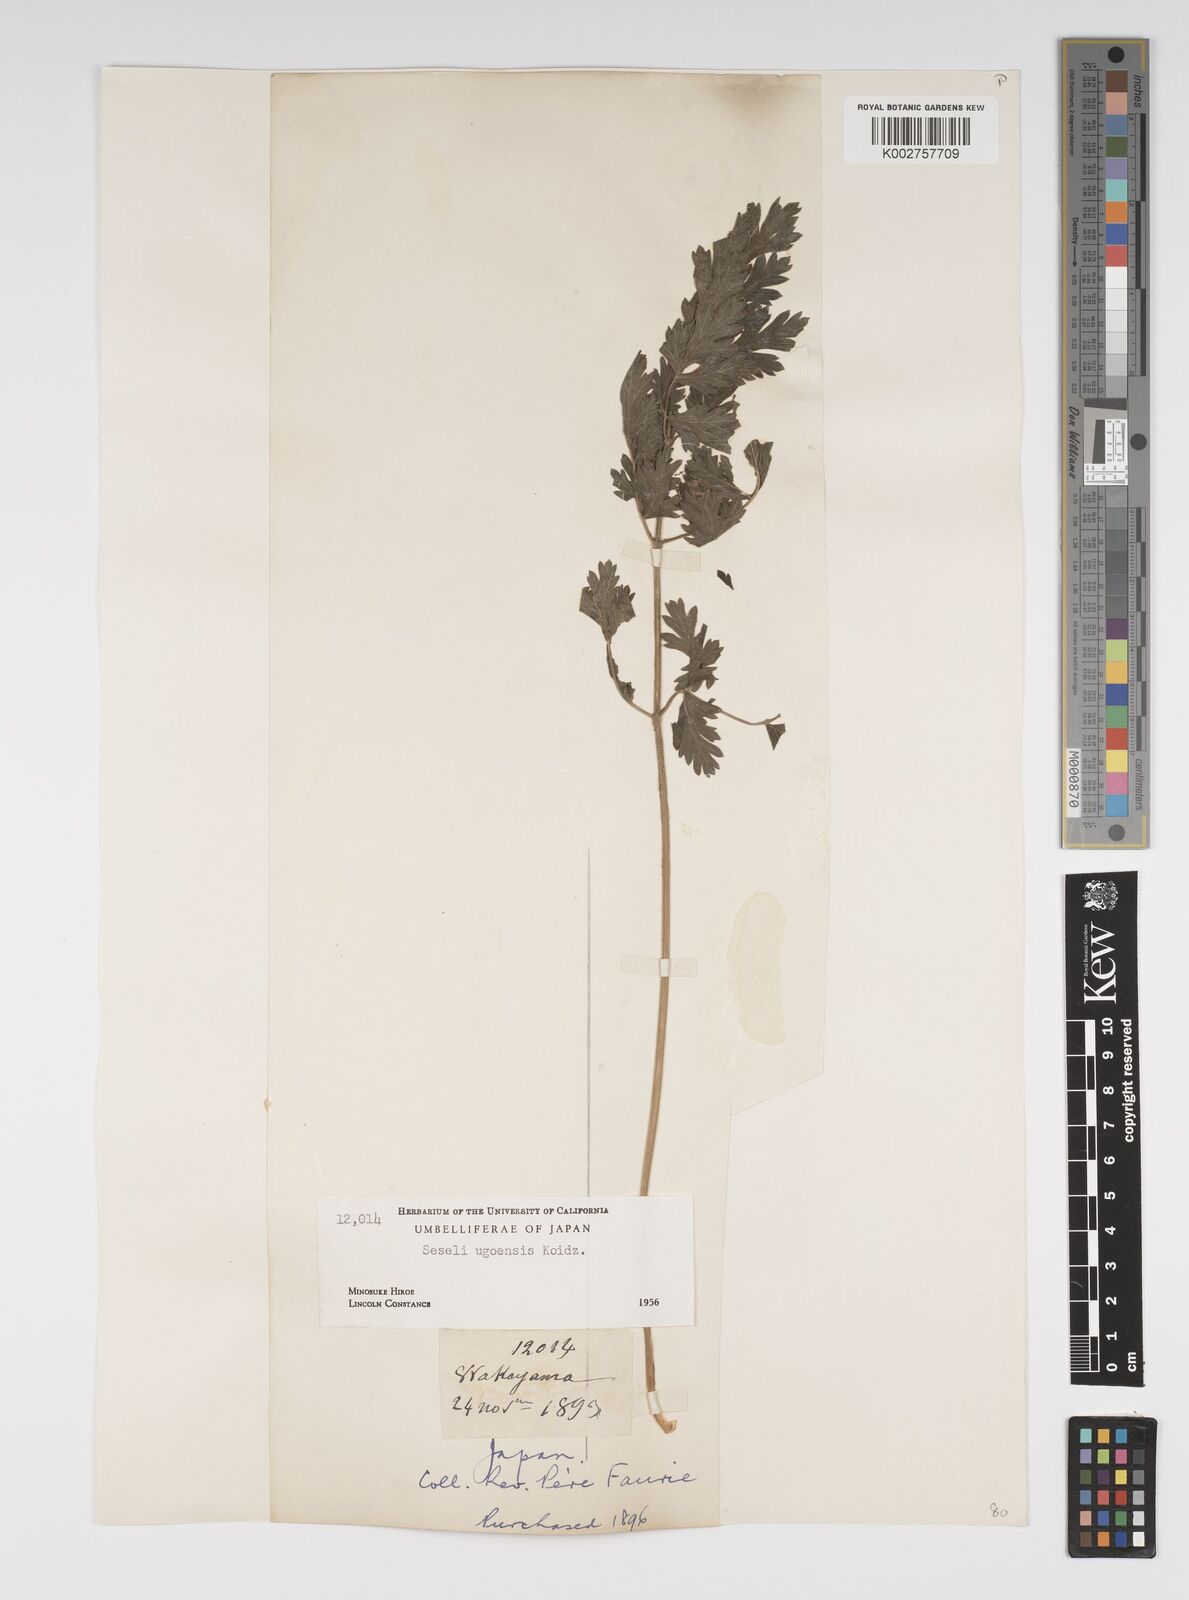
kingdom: Plantae
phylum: Tracheophyta
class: Magnoliopsida
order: Apiales
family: Apiaceae
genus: Seseli
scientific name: Seseli ugoense
